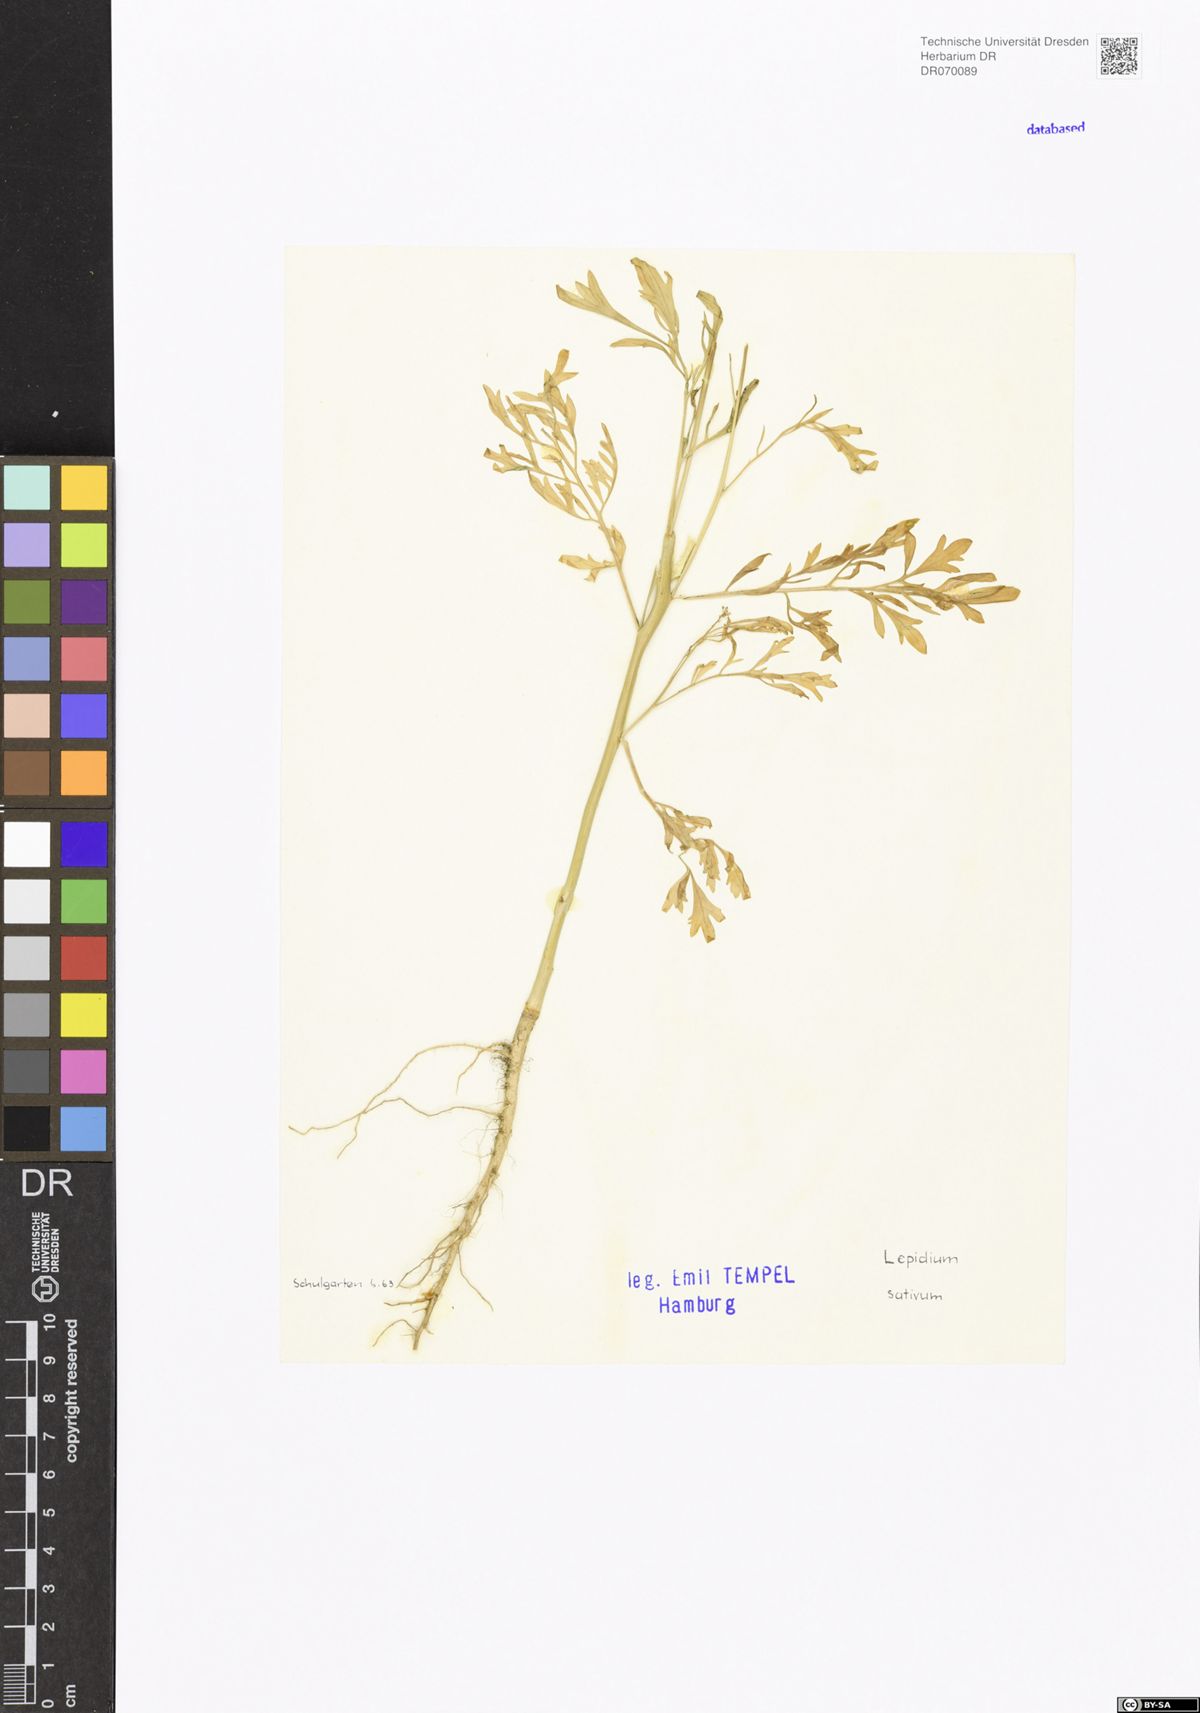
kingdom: Plantae
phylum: Tracheophyta
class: Magnoliopsida
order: Brassicales
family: Brassicaceae
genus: Lepidium
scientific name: Lepidium sativum
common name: Garden cress
